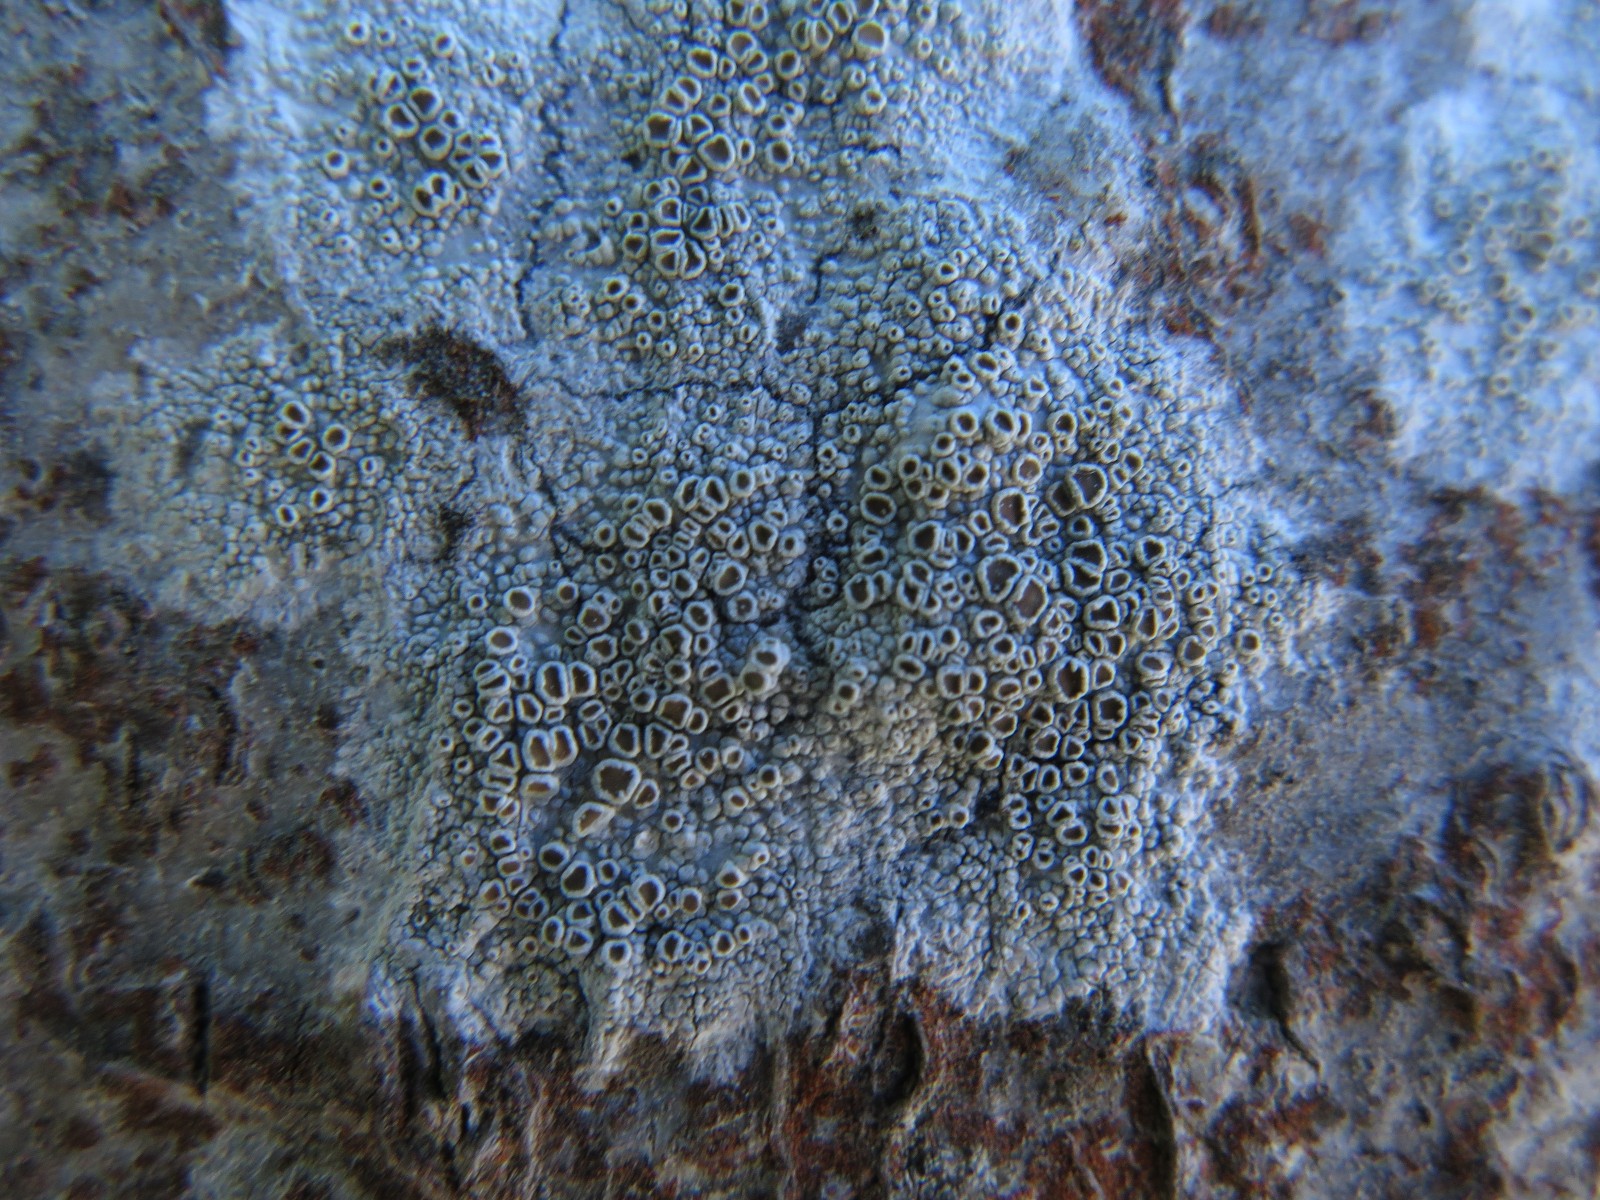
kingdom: Fungi
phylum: Ascomycota
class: Lecanoromycetes
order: Lecanorales
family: Lecanoraceae
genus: Lecanora
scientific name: Lecanora chlarotera
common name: brun kantskivelav
